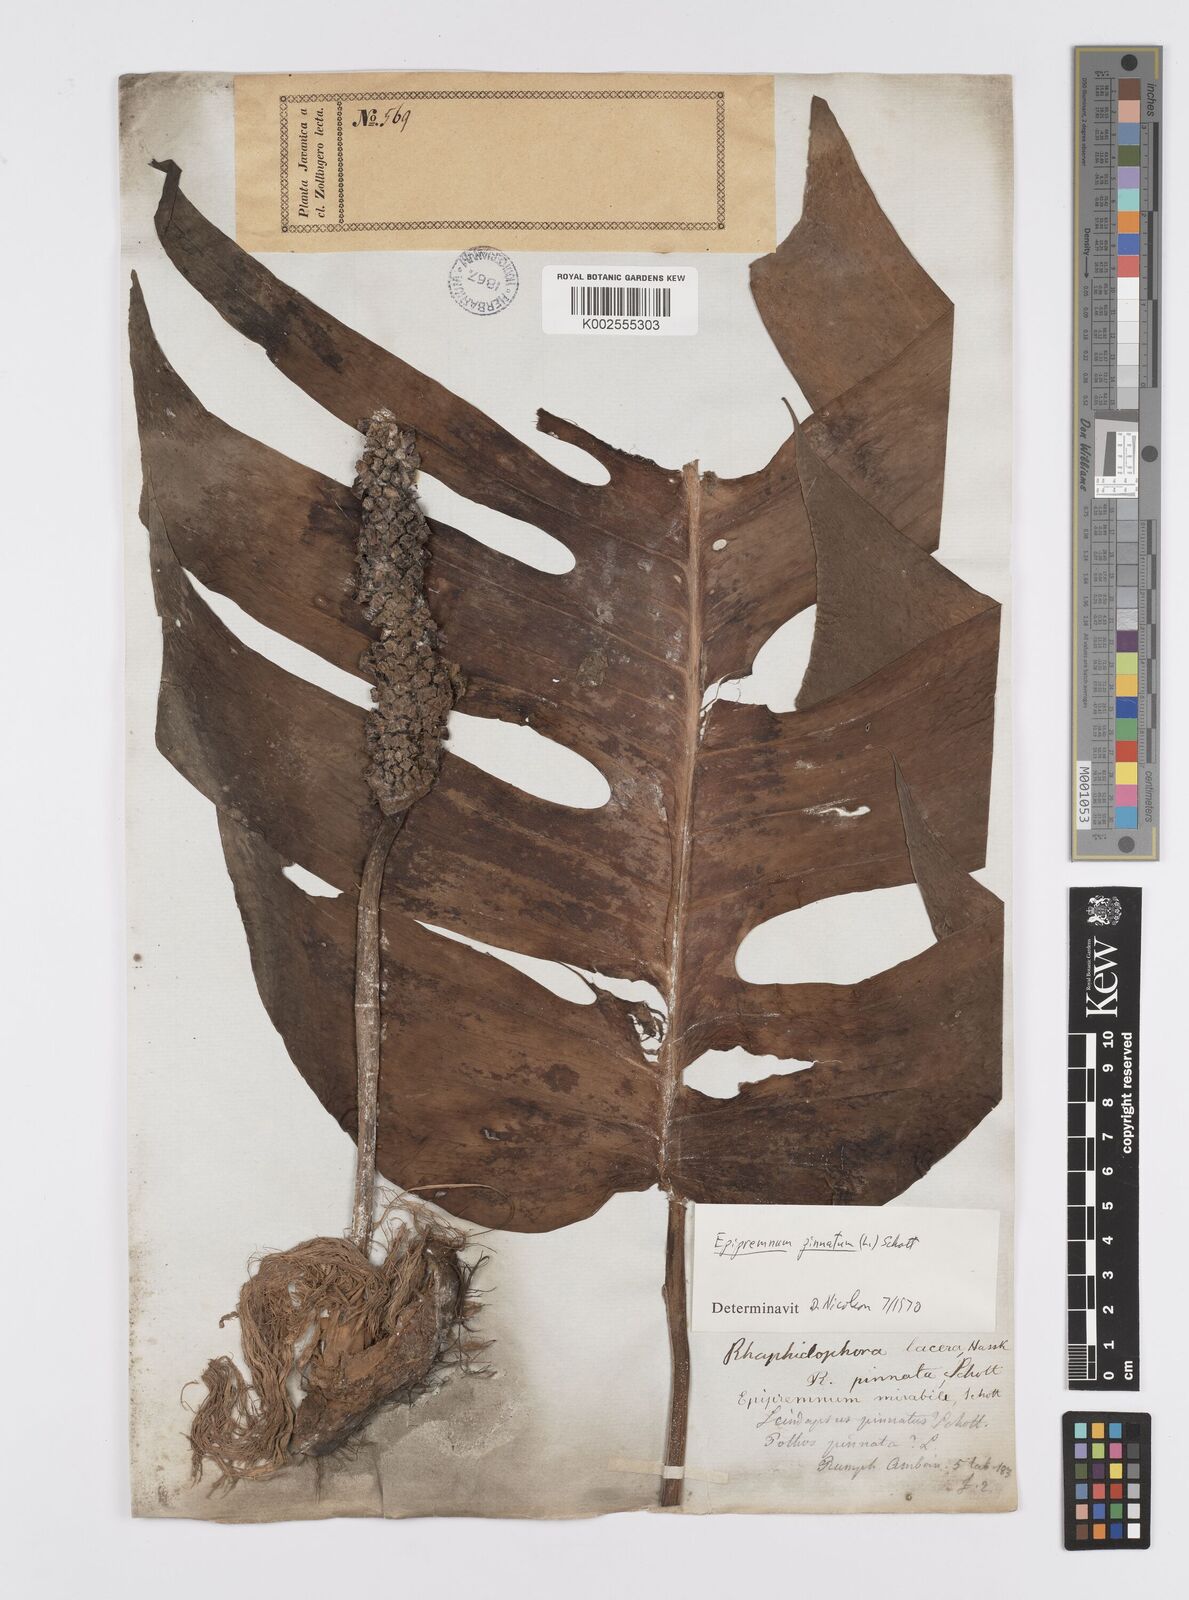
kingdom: Plantae
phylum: Tracheophyta
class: Liliopsida
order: Alismatales
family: Araceae
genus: Epipremnum
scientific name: Epipremnum pinnatum
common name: Centipede tongavine
